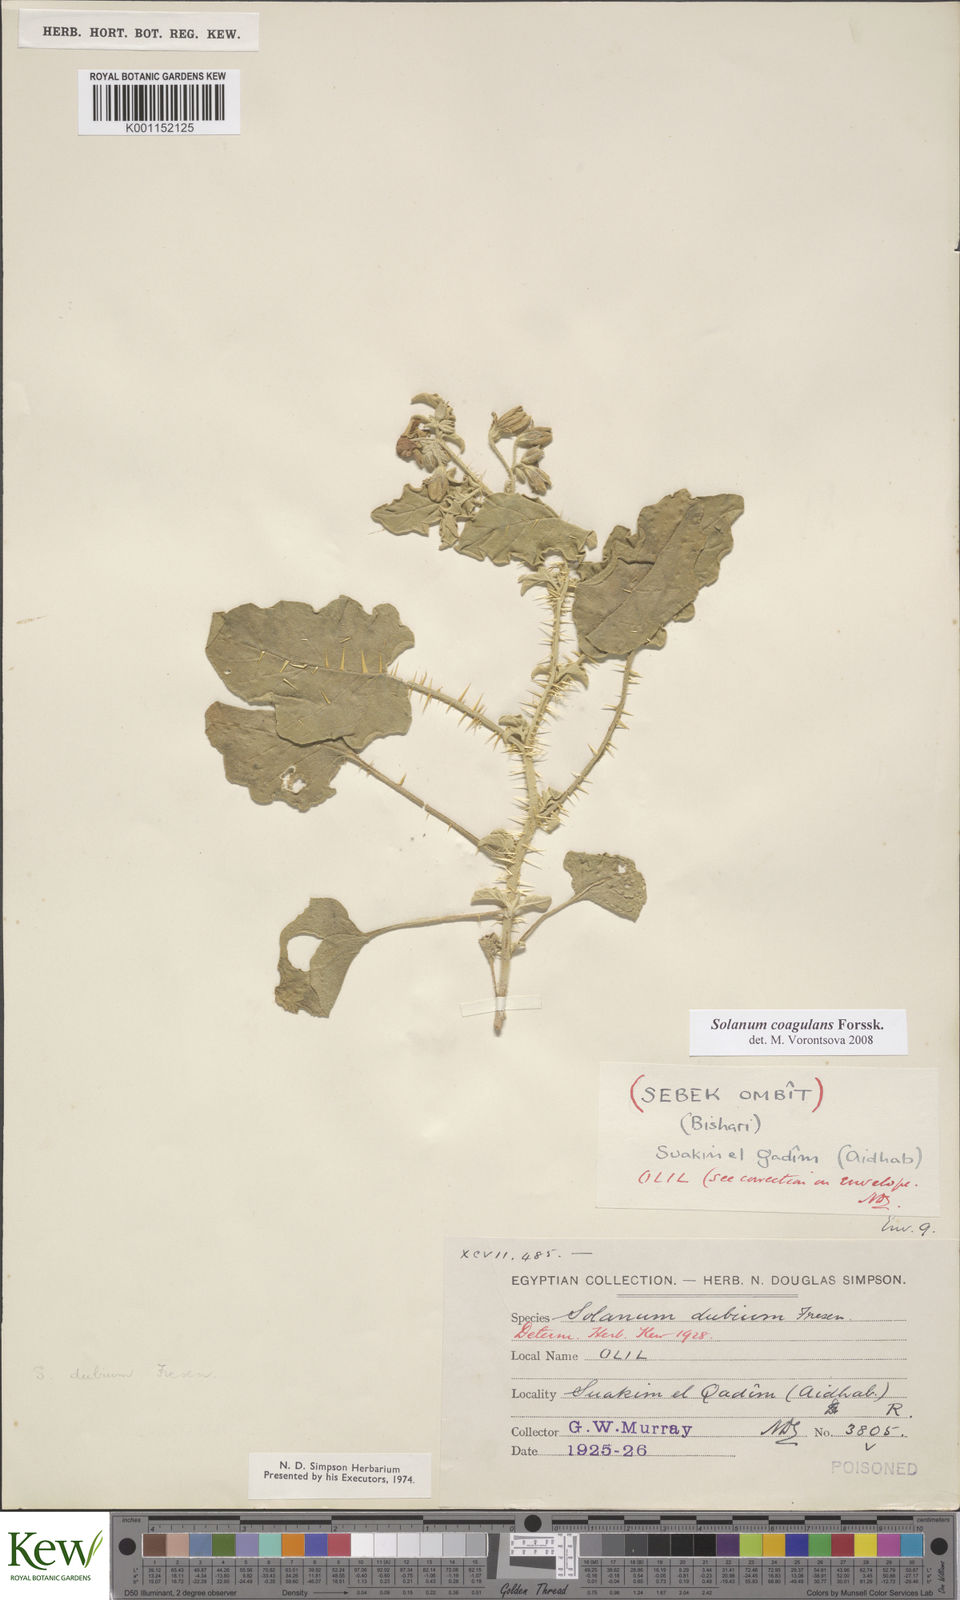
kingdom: Plantae
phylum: Tracheophyta
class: Magnoliopsida
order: Solanales
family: Solanaceae
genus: Solanum
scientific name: Solanum coagulans
